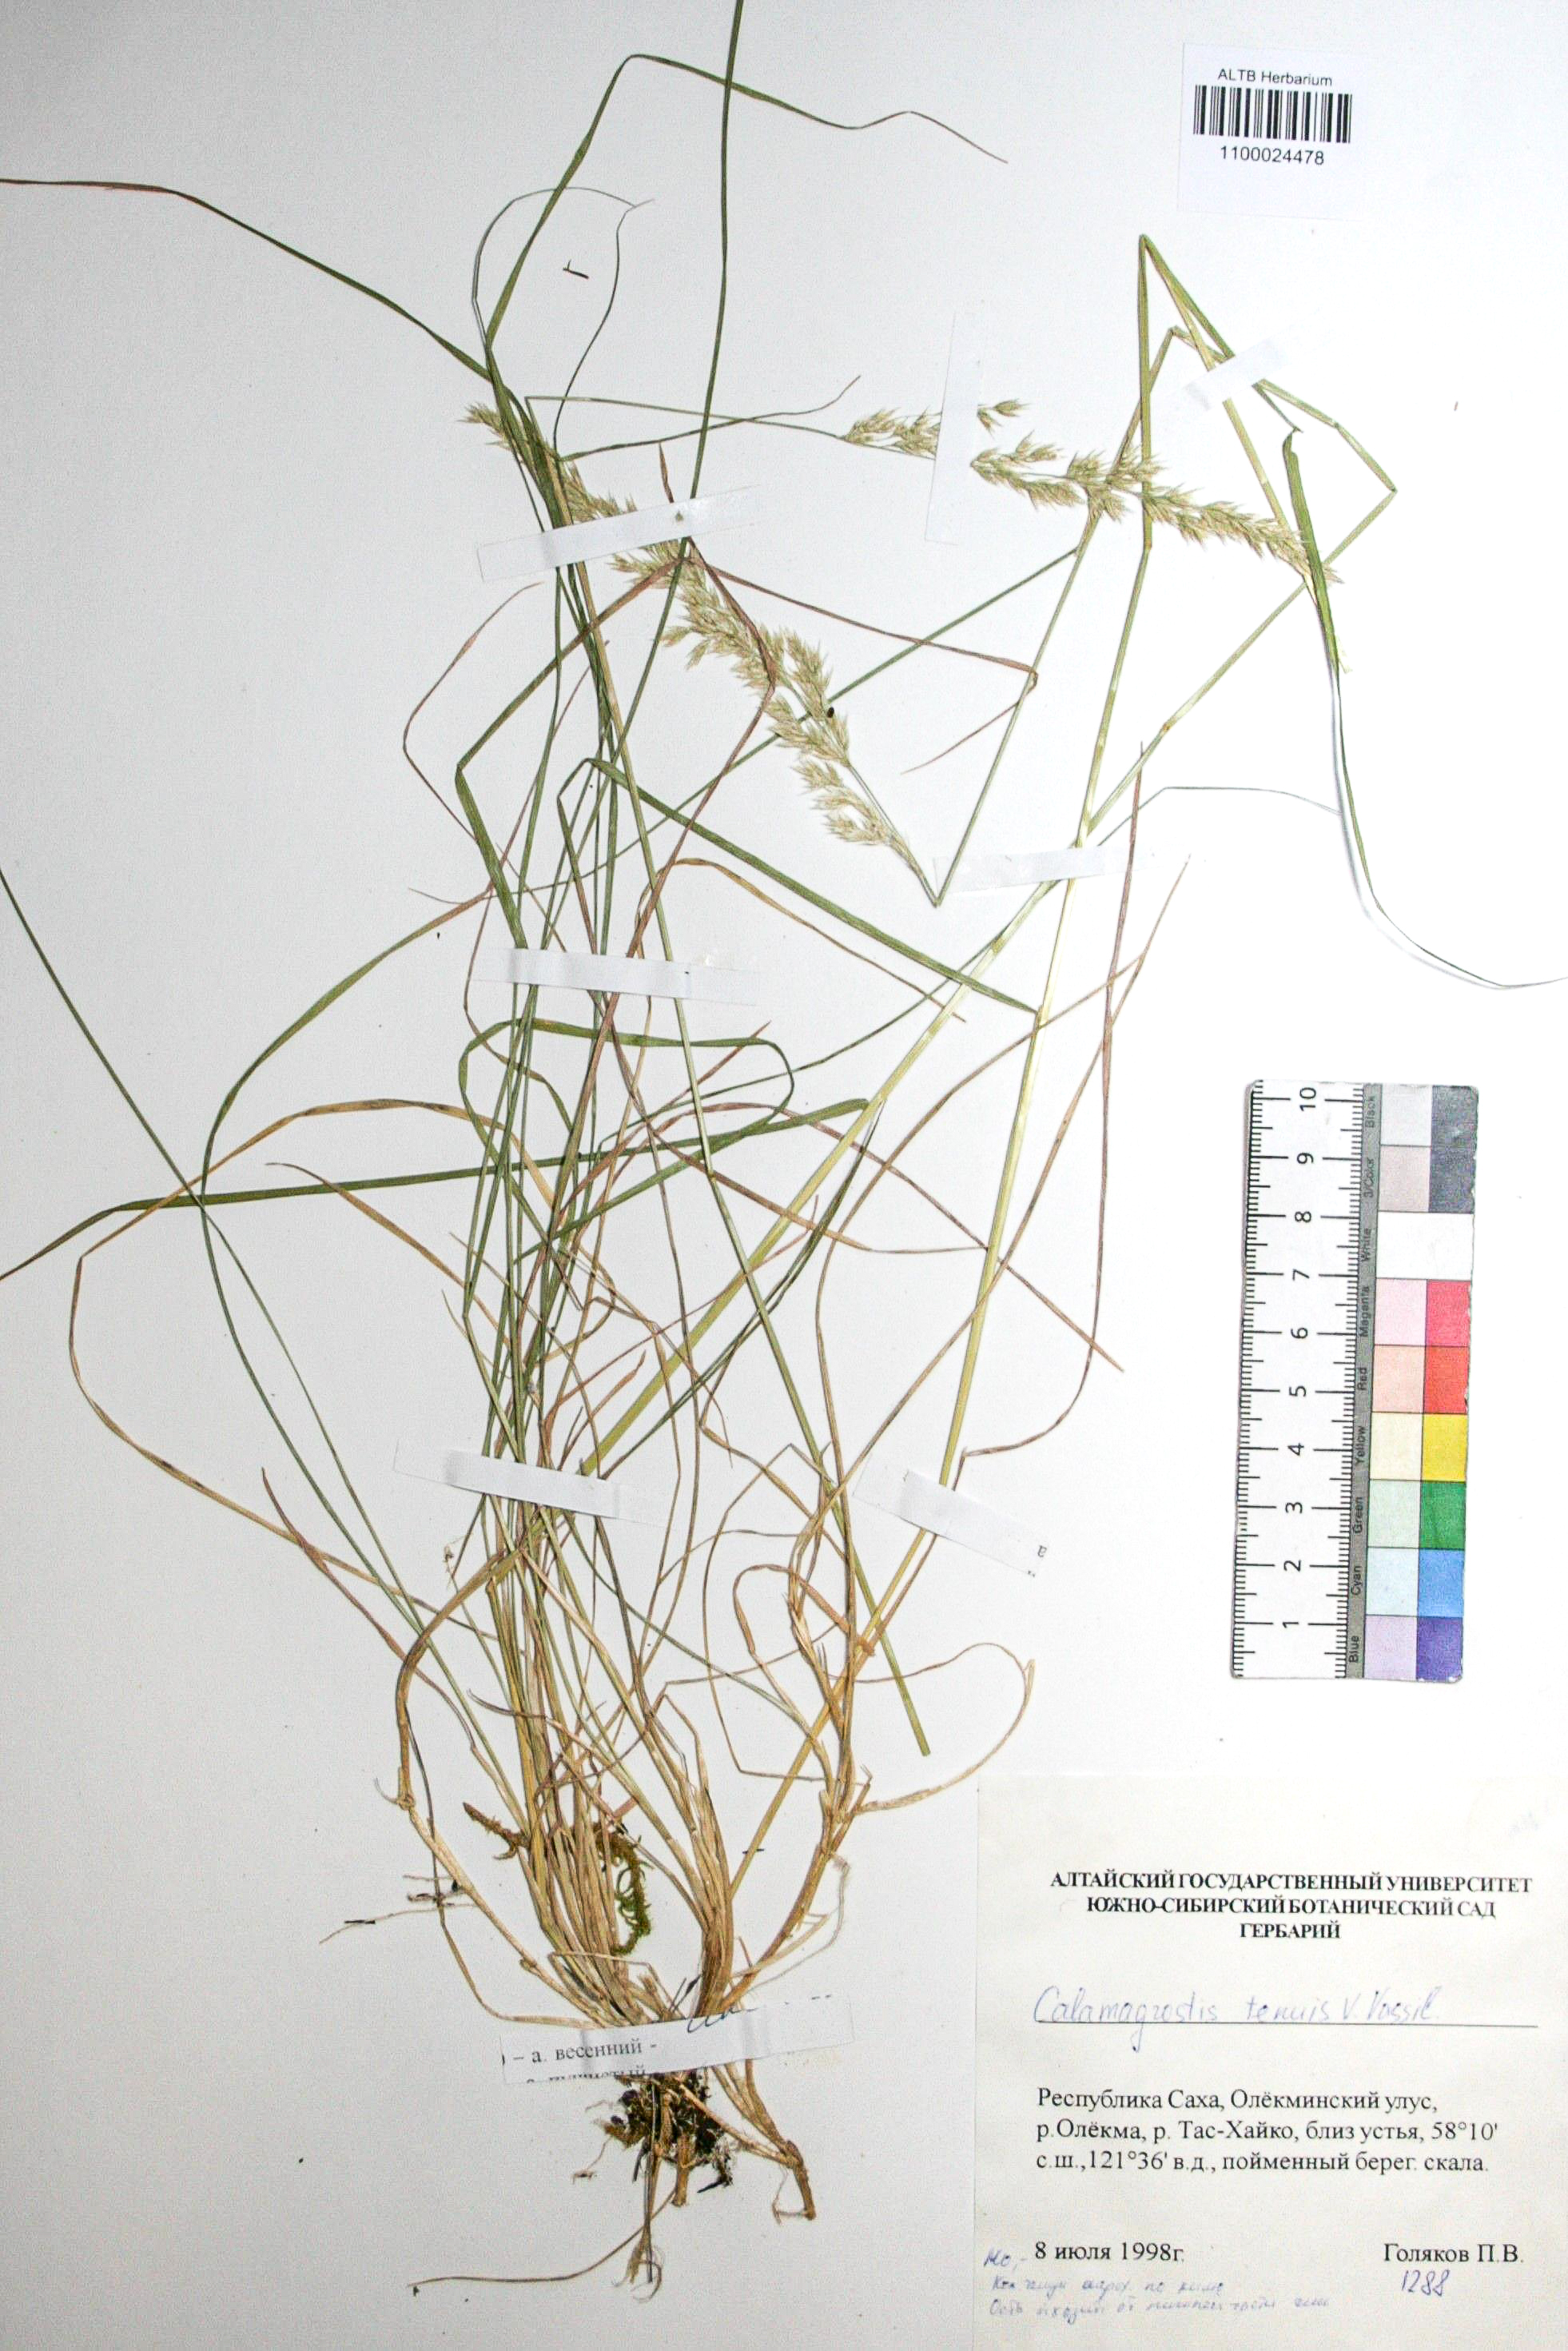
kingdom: Plantae
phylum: Tracheophyta
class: Liliopsida
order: Poales
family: Poaceae
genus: Calamagrostis
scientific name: Calamagrostis angustifolia
